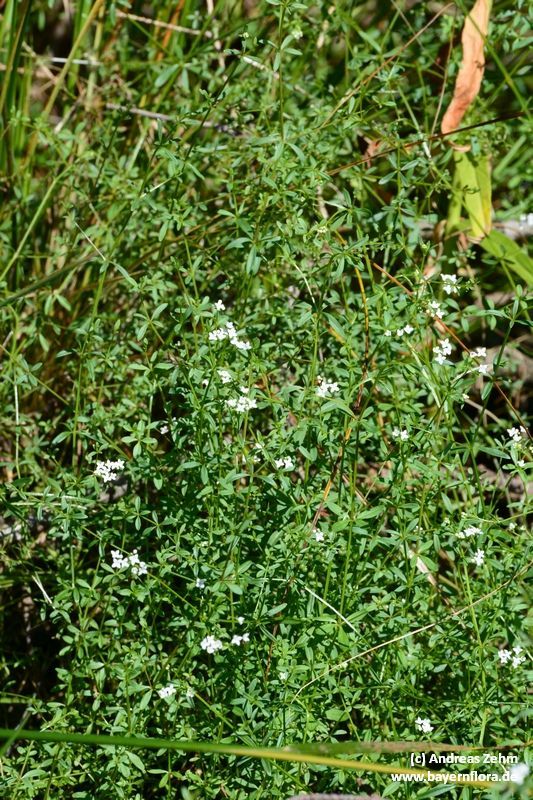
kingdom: Plantae
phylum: Tracheophyta
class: Magnoliopsida
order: Gentianales
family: Rubiaceae
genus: Galium
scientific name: Galium palustre
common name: Common marsh-bedstraw
